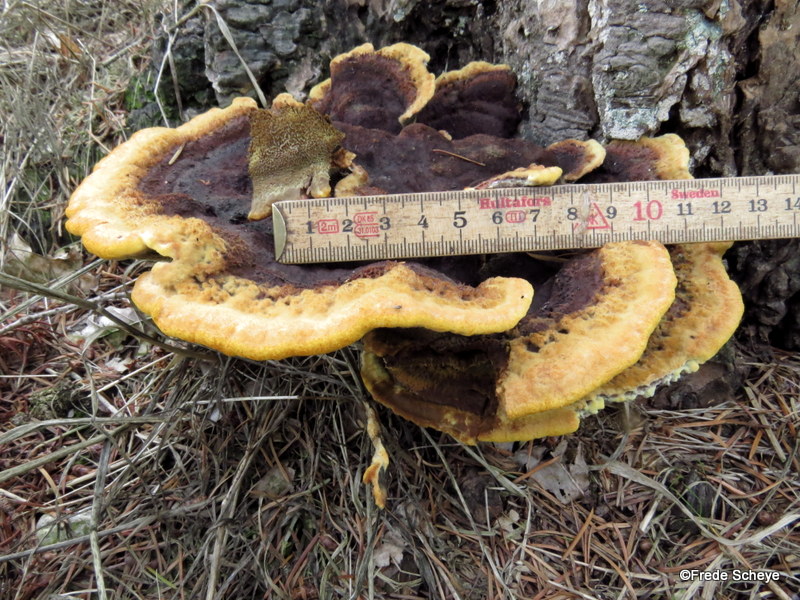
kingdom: Fungi
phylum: Basidiomycota
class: Agaricomycetes
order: Polyporales
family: Laetiporaceae
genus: Phaeolus
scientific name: Phaeolus schweinitzii
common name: brunporesvamp
